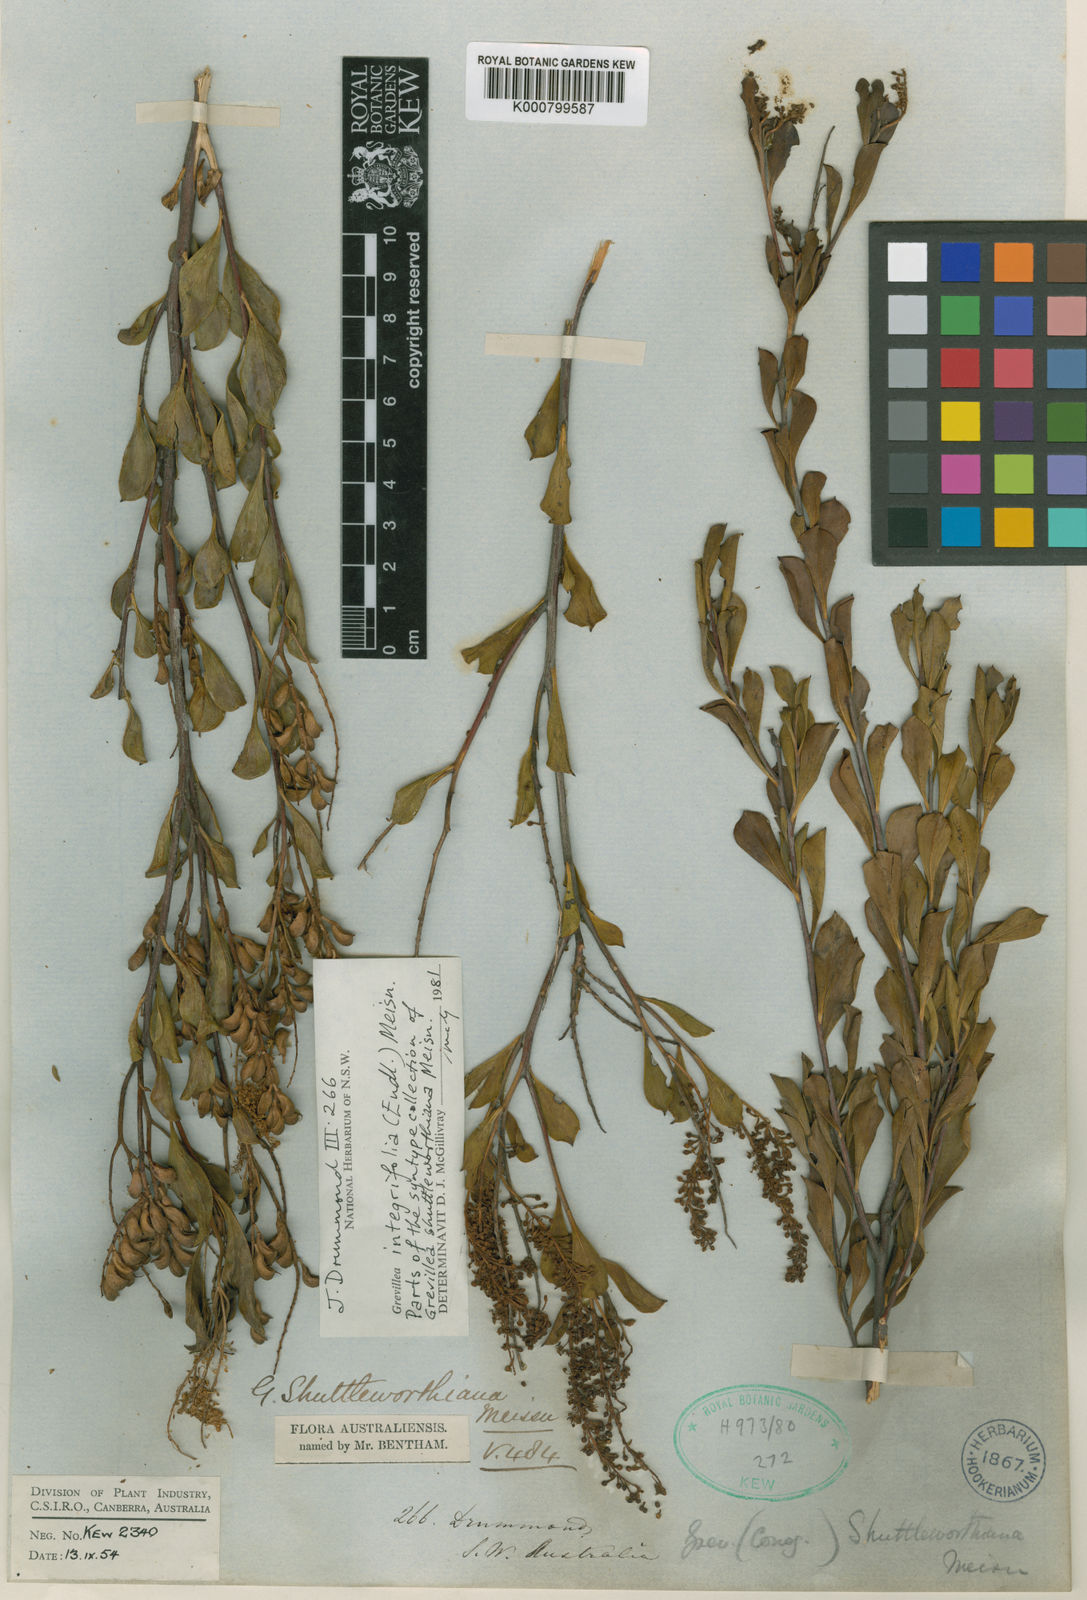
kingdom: Plantae
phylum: Tracheophyta
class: Magnoliopsida
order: Proteales
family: Proteaceae
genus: Grevillea
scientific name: Grevillea integrifolia
